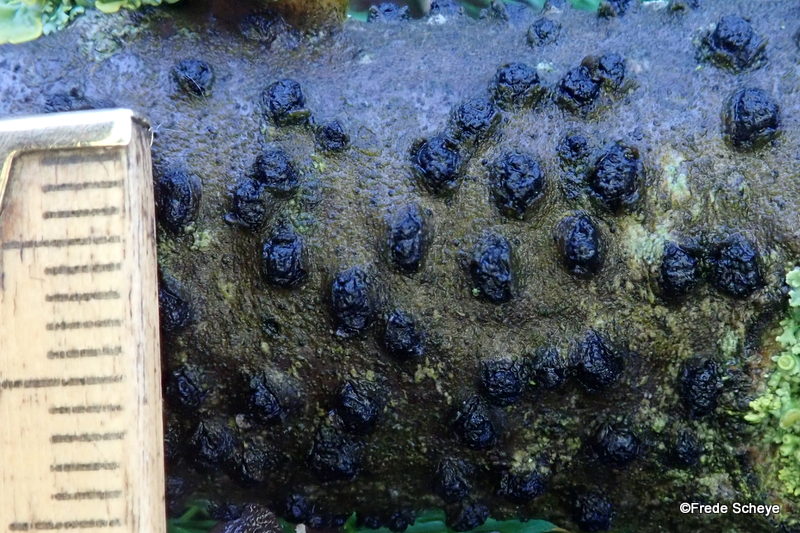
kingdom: Fungi
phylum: Ascomycota
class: Sordariomycetes
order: Xylariales
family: Diatrypaceae
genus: Diatrypella
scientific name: Diatrypella quercina
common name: ege-kulskorpe
